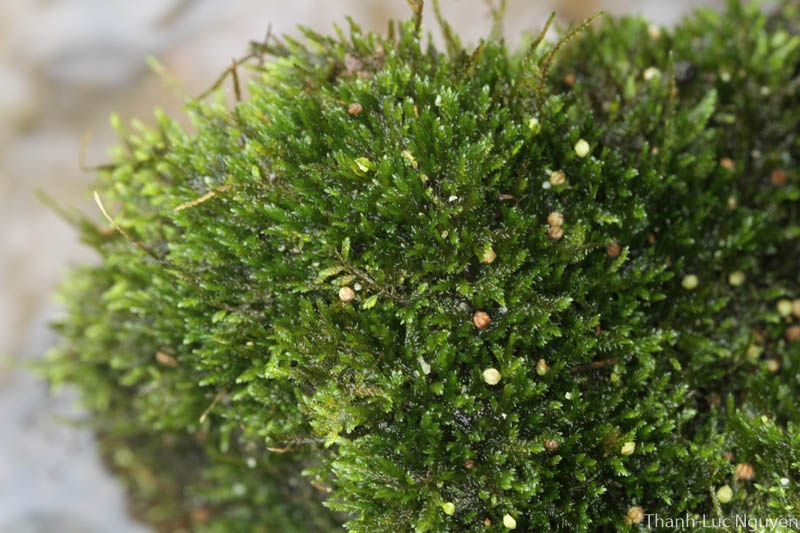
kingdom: Plantae
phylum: Bryophyta
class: Bryopsida
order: Hypnales
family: Hypnaceae
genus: Glossadelphus
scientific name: Glossadelphus
